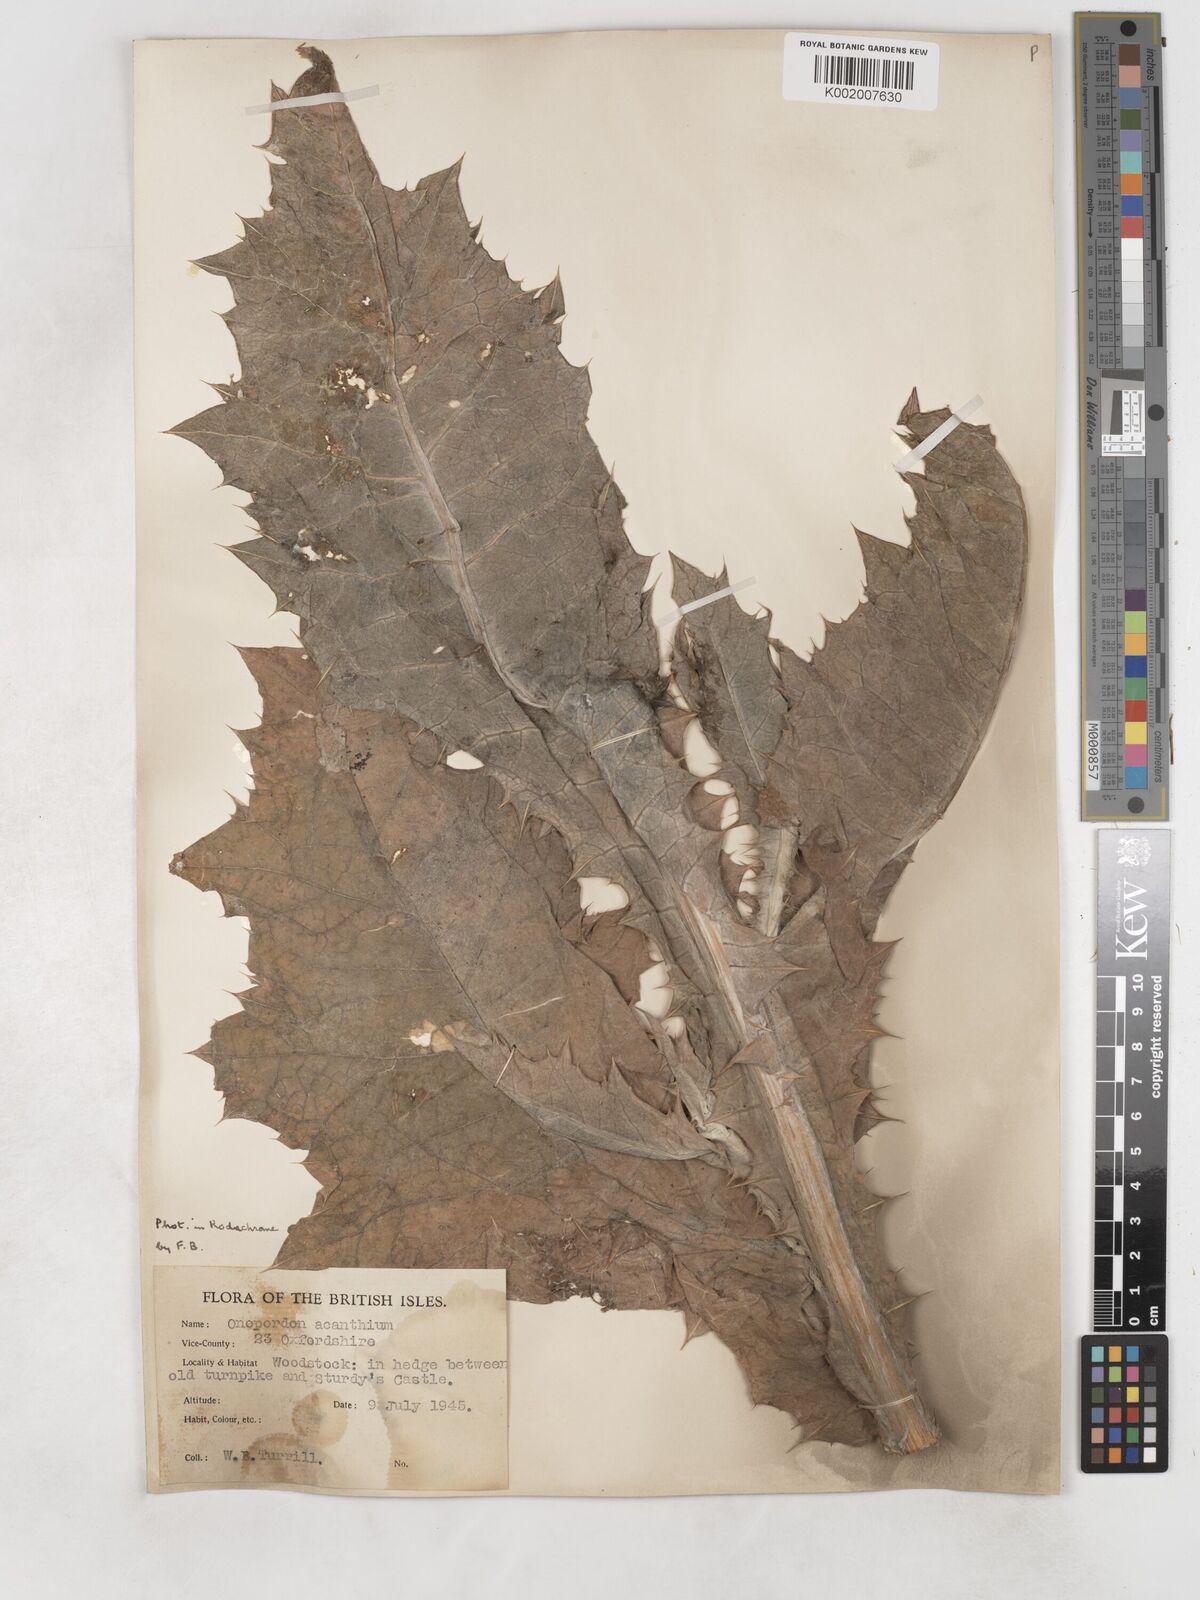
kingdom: Plantae
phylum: Tracheophyta
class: Magnoliopsida
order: Asterales
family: Asteraceae
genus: Onopordum
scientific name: Onopordum acanthium
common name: Scotch thistle
